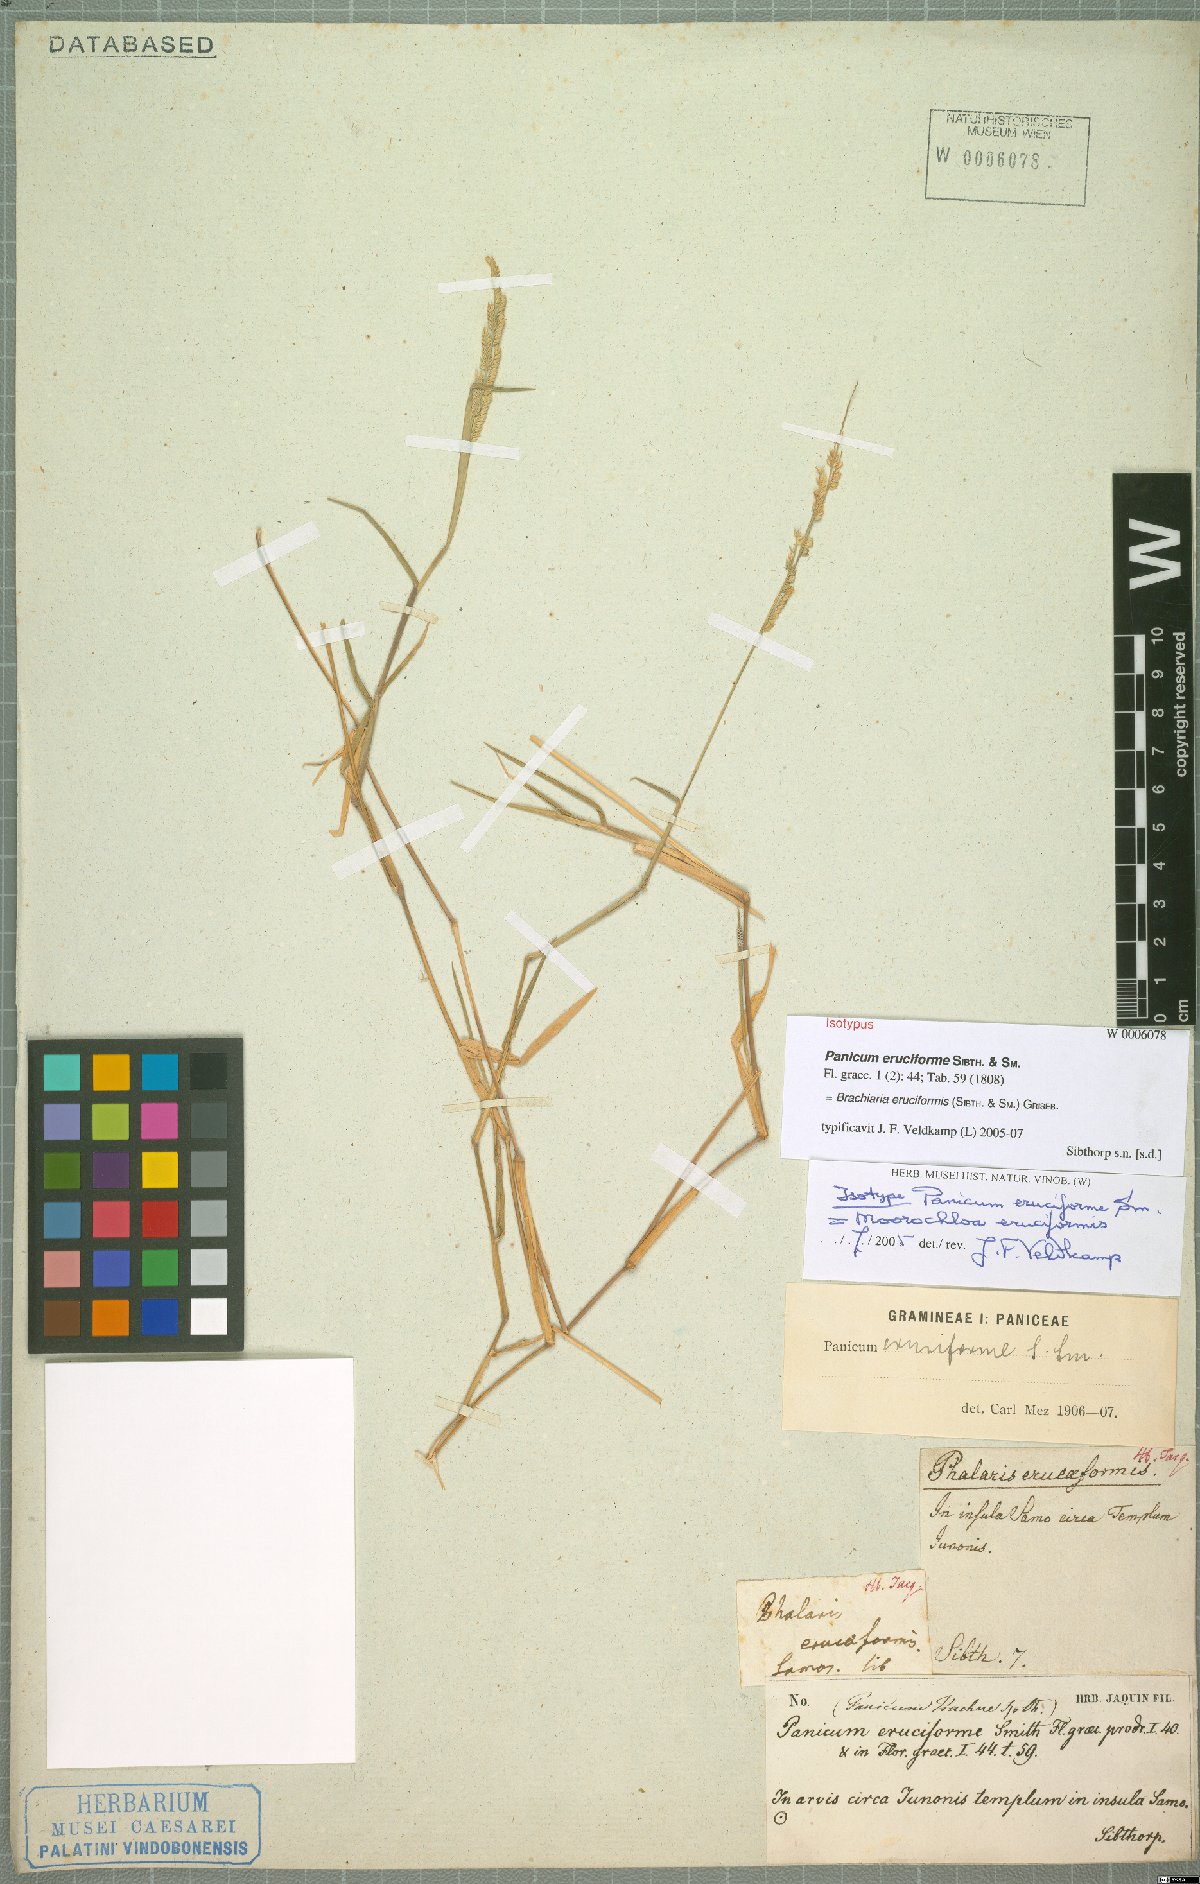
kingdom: Plantae
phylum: Tracheophyta
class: Liliopsida
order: Poales
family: Poaceae
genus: Moorochloa
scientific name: Moorochloa eruciformis
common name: Sweet signalgrass
